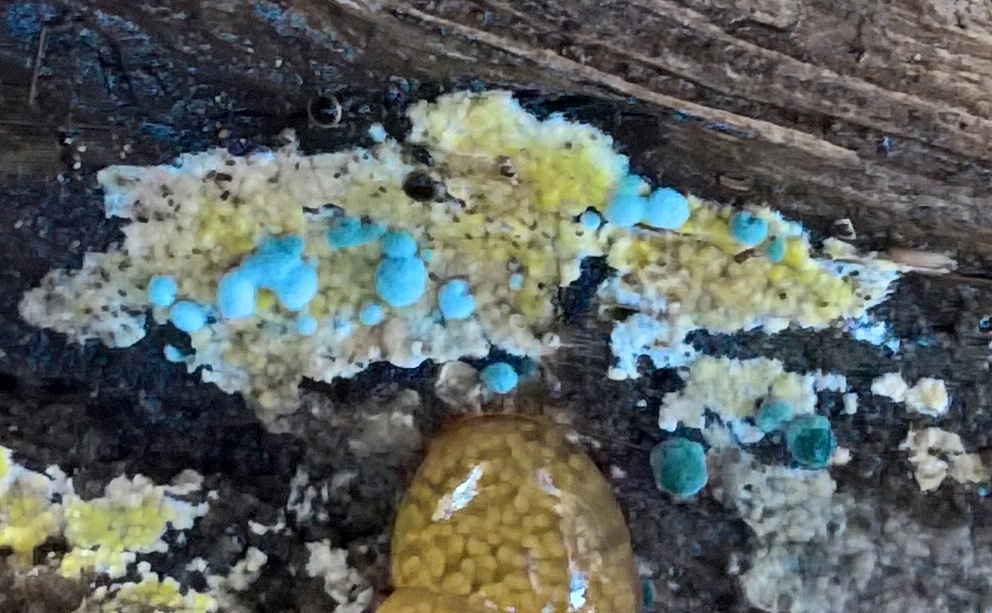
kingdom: Fungi
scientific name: Fungi
